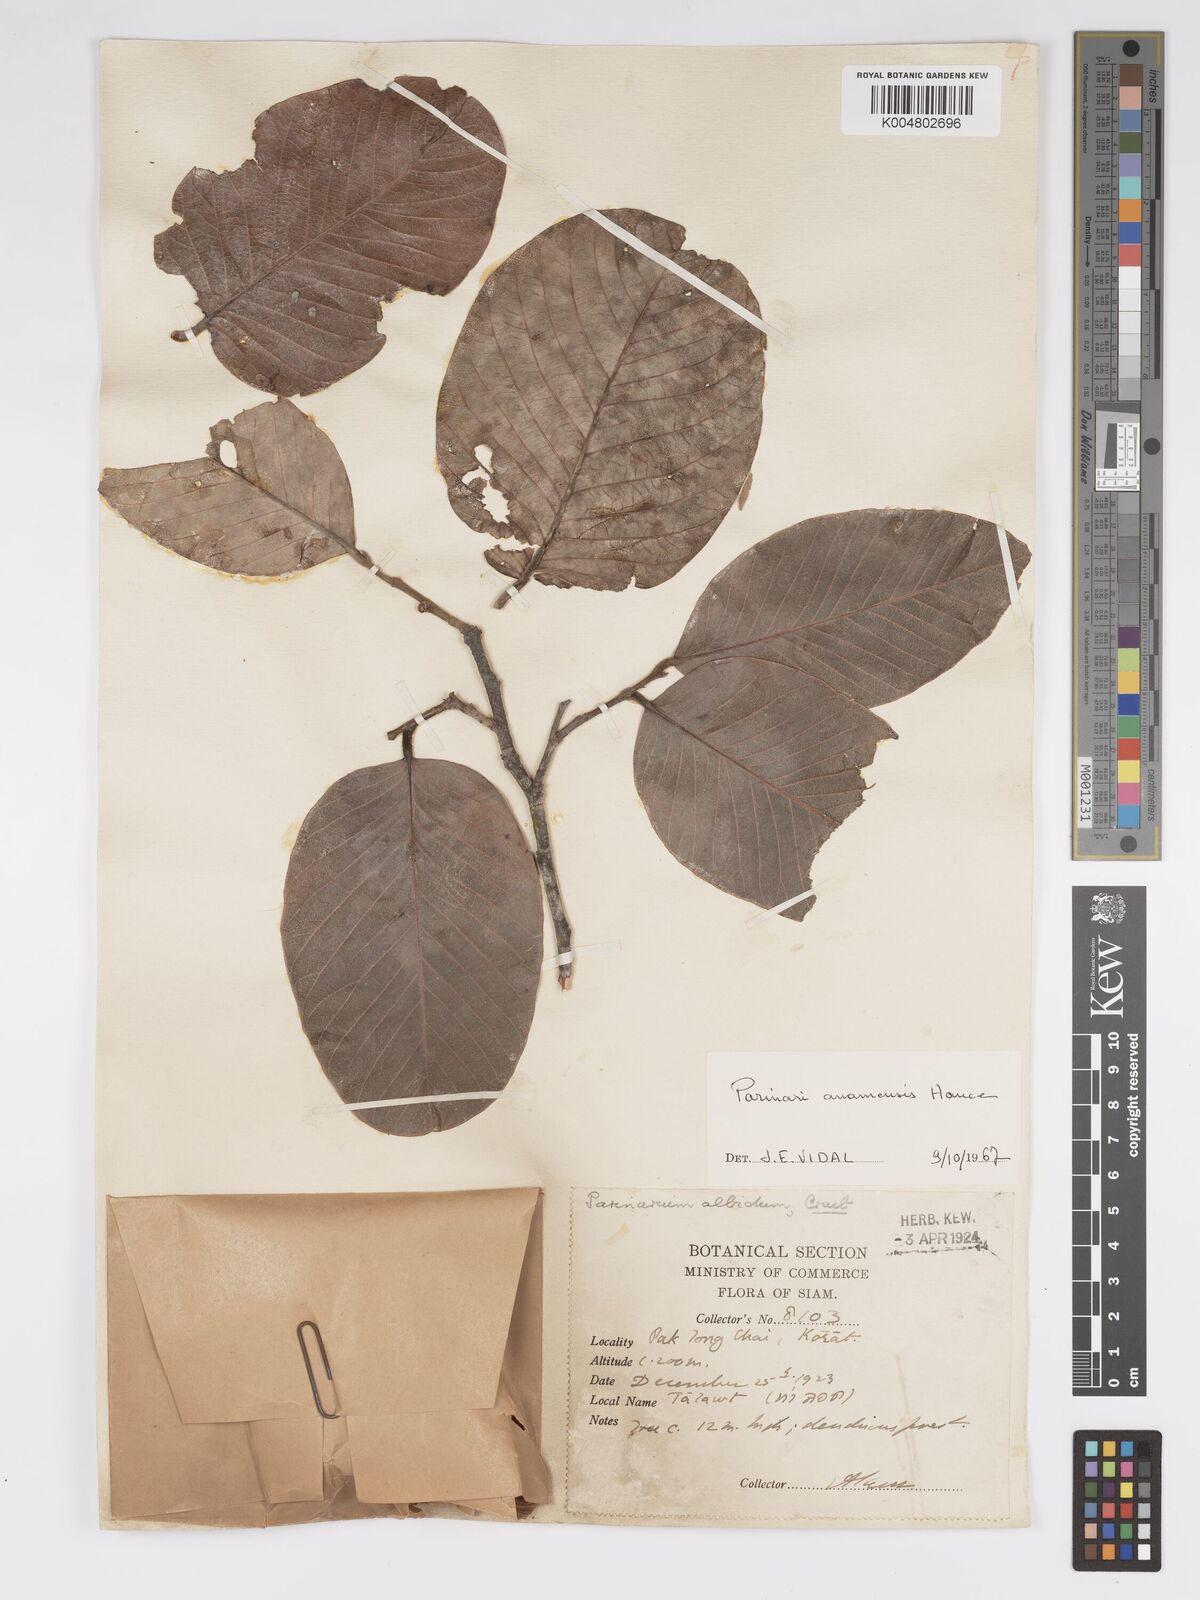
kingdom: Plantae
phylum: Tracheophyta
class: Magnoliopsida
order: Malpighiales
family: Chrysobalanaceae
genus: Parinari
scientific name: Parinari anamensis
